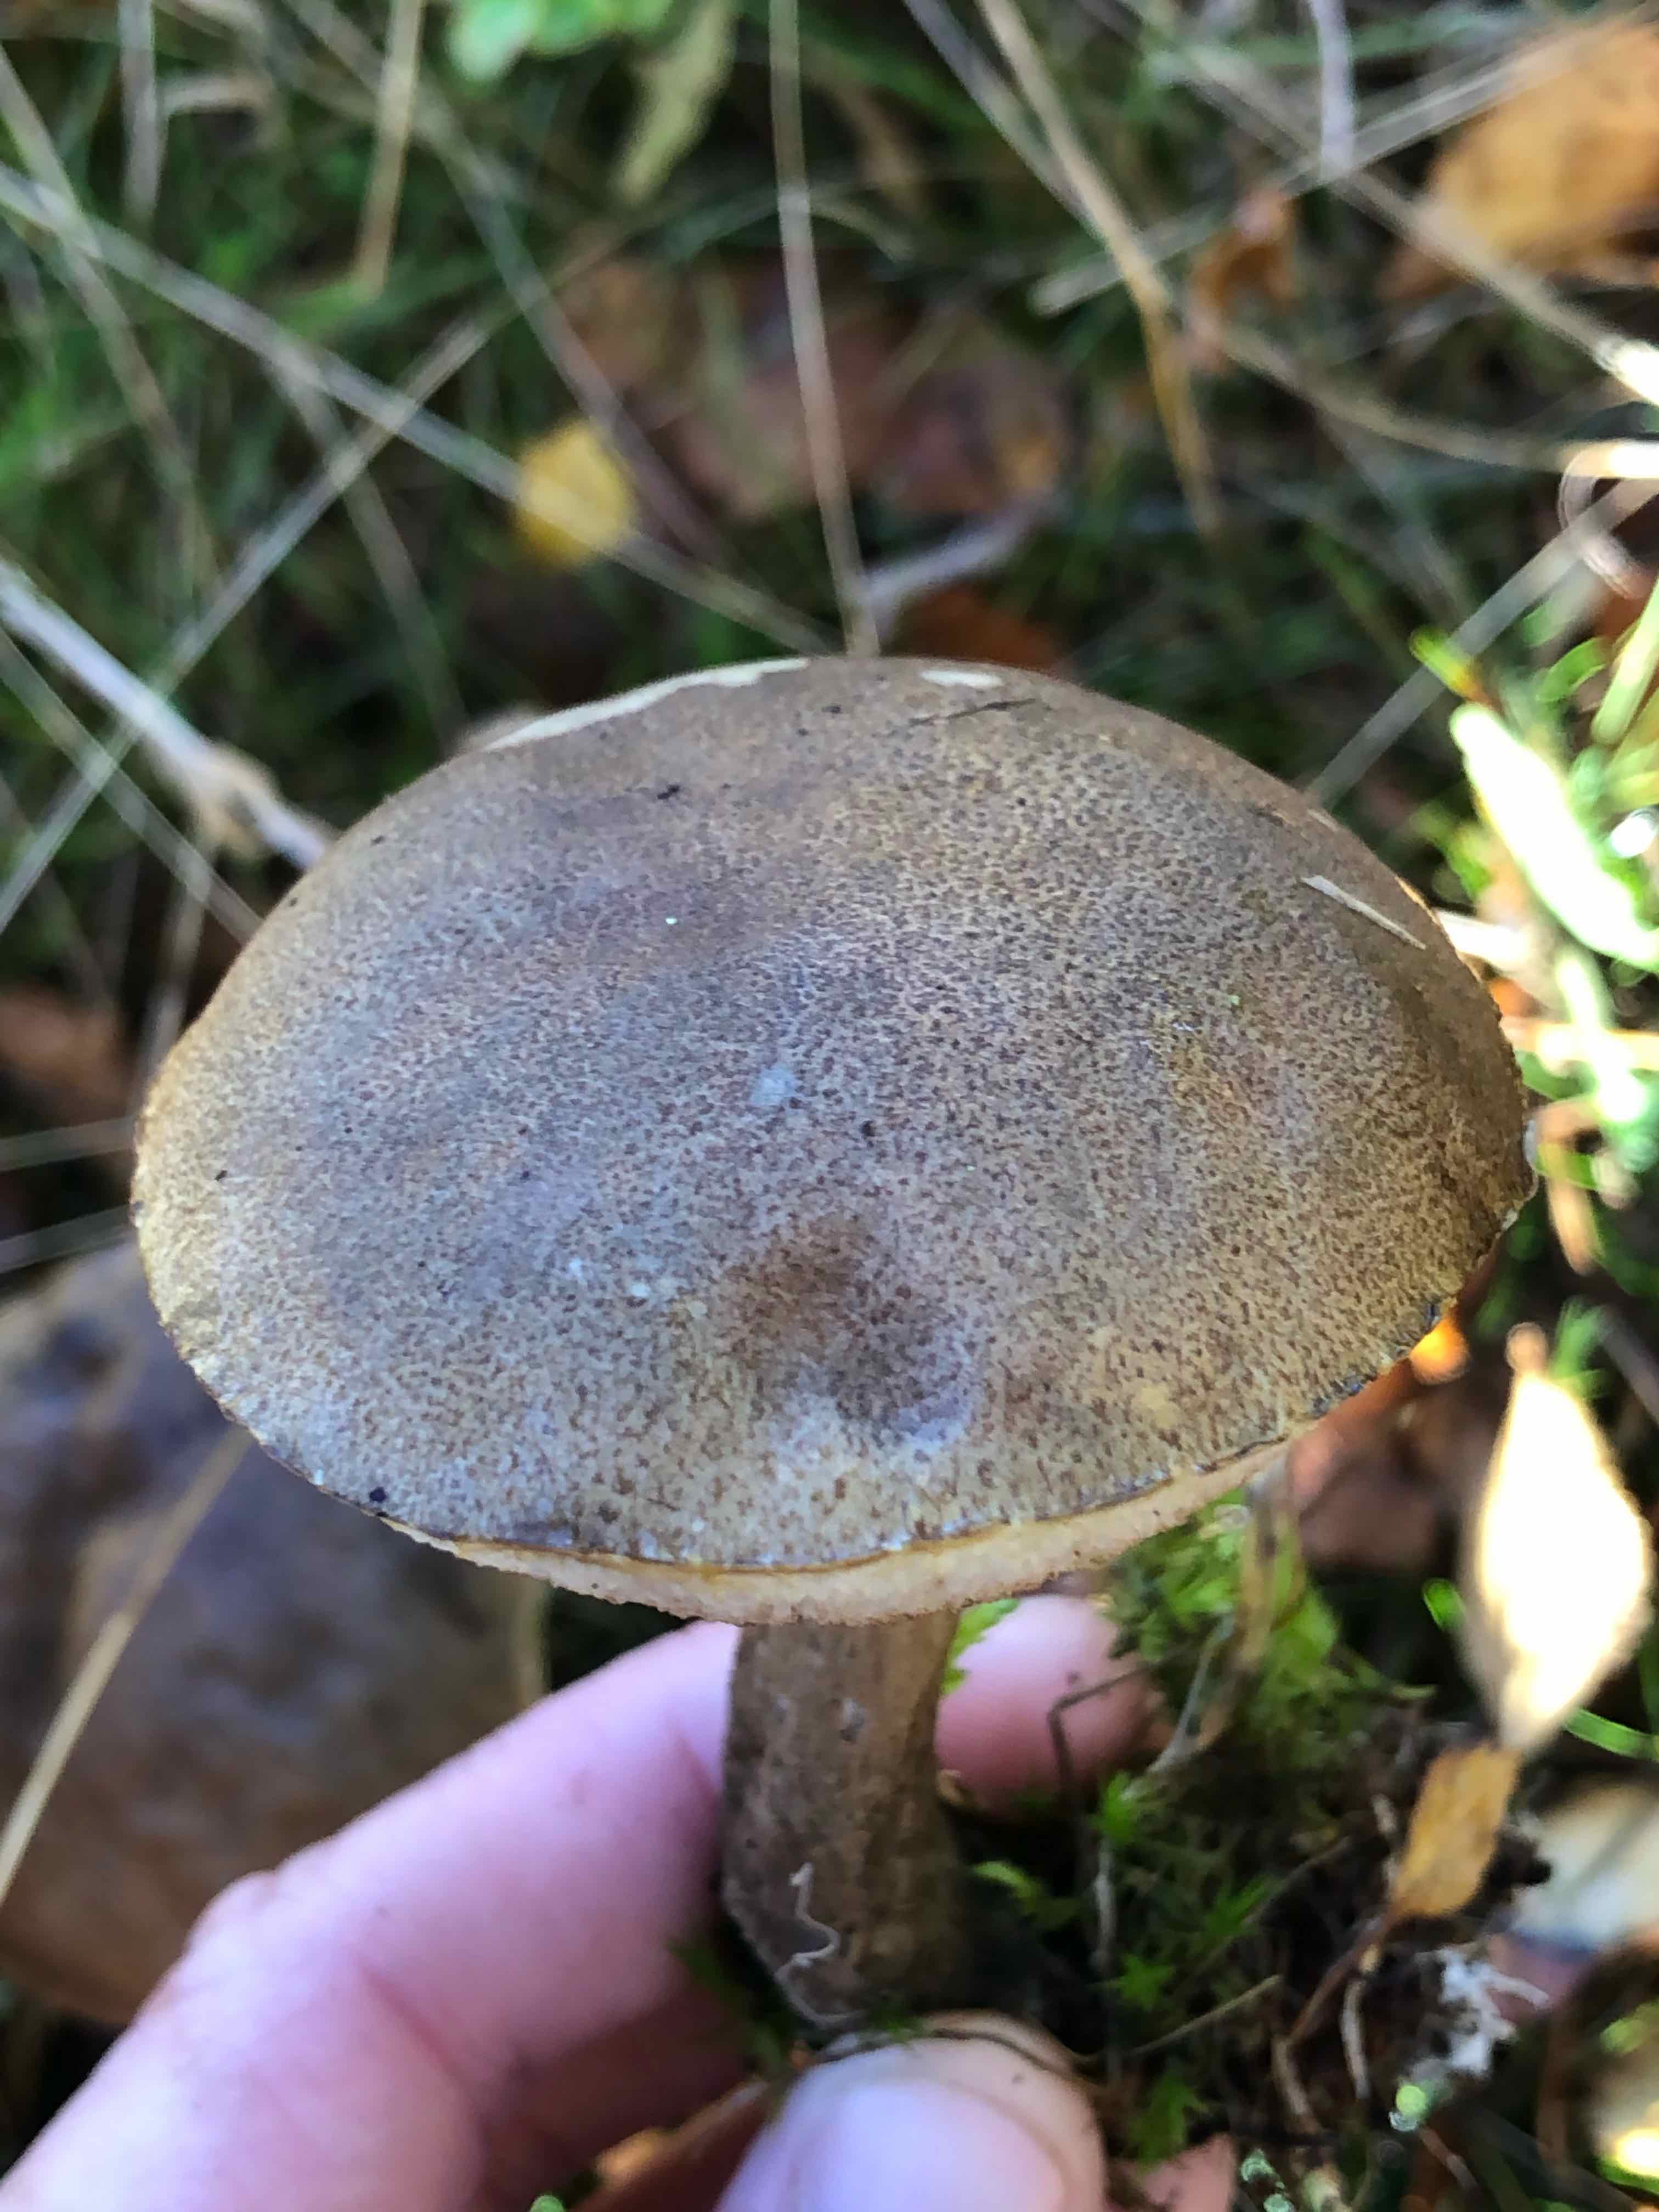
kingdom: Fungi
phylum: Basidiomycota
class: Agaricomycetes
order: Boletales
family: Boletaceae
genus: Leccinum
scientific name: Leccinum scabrum
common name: brun skælrørhat
